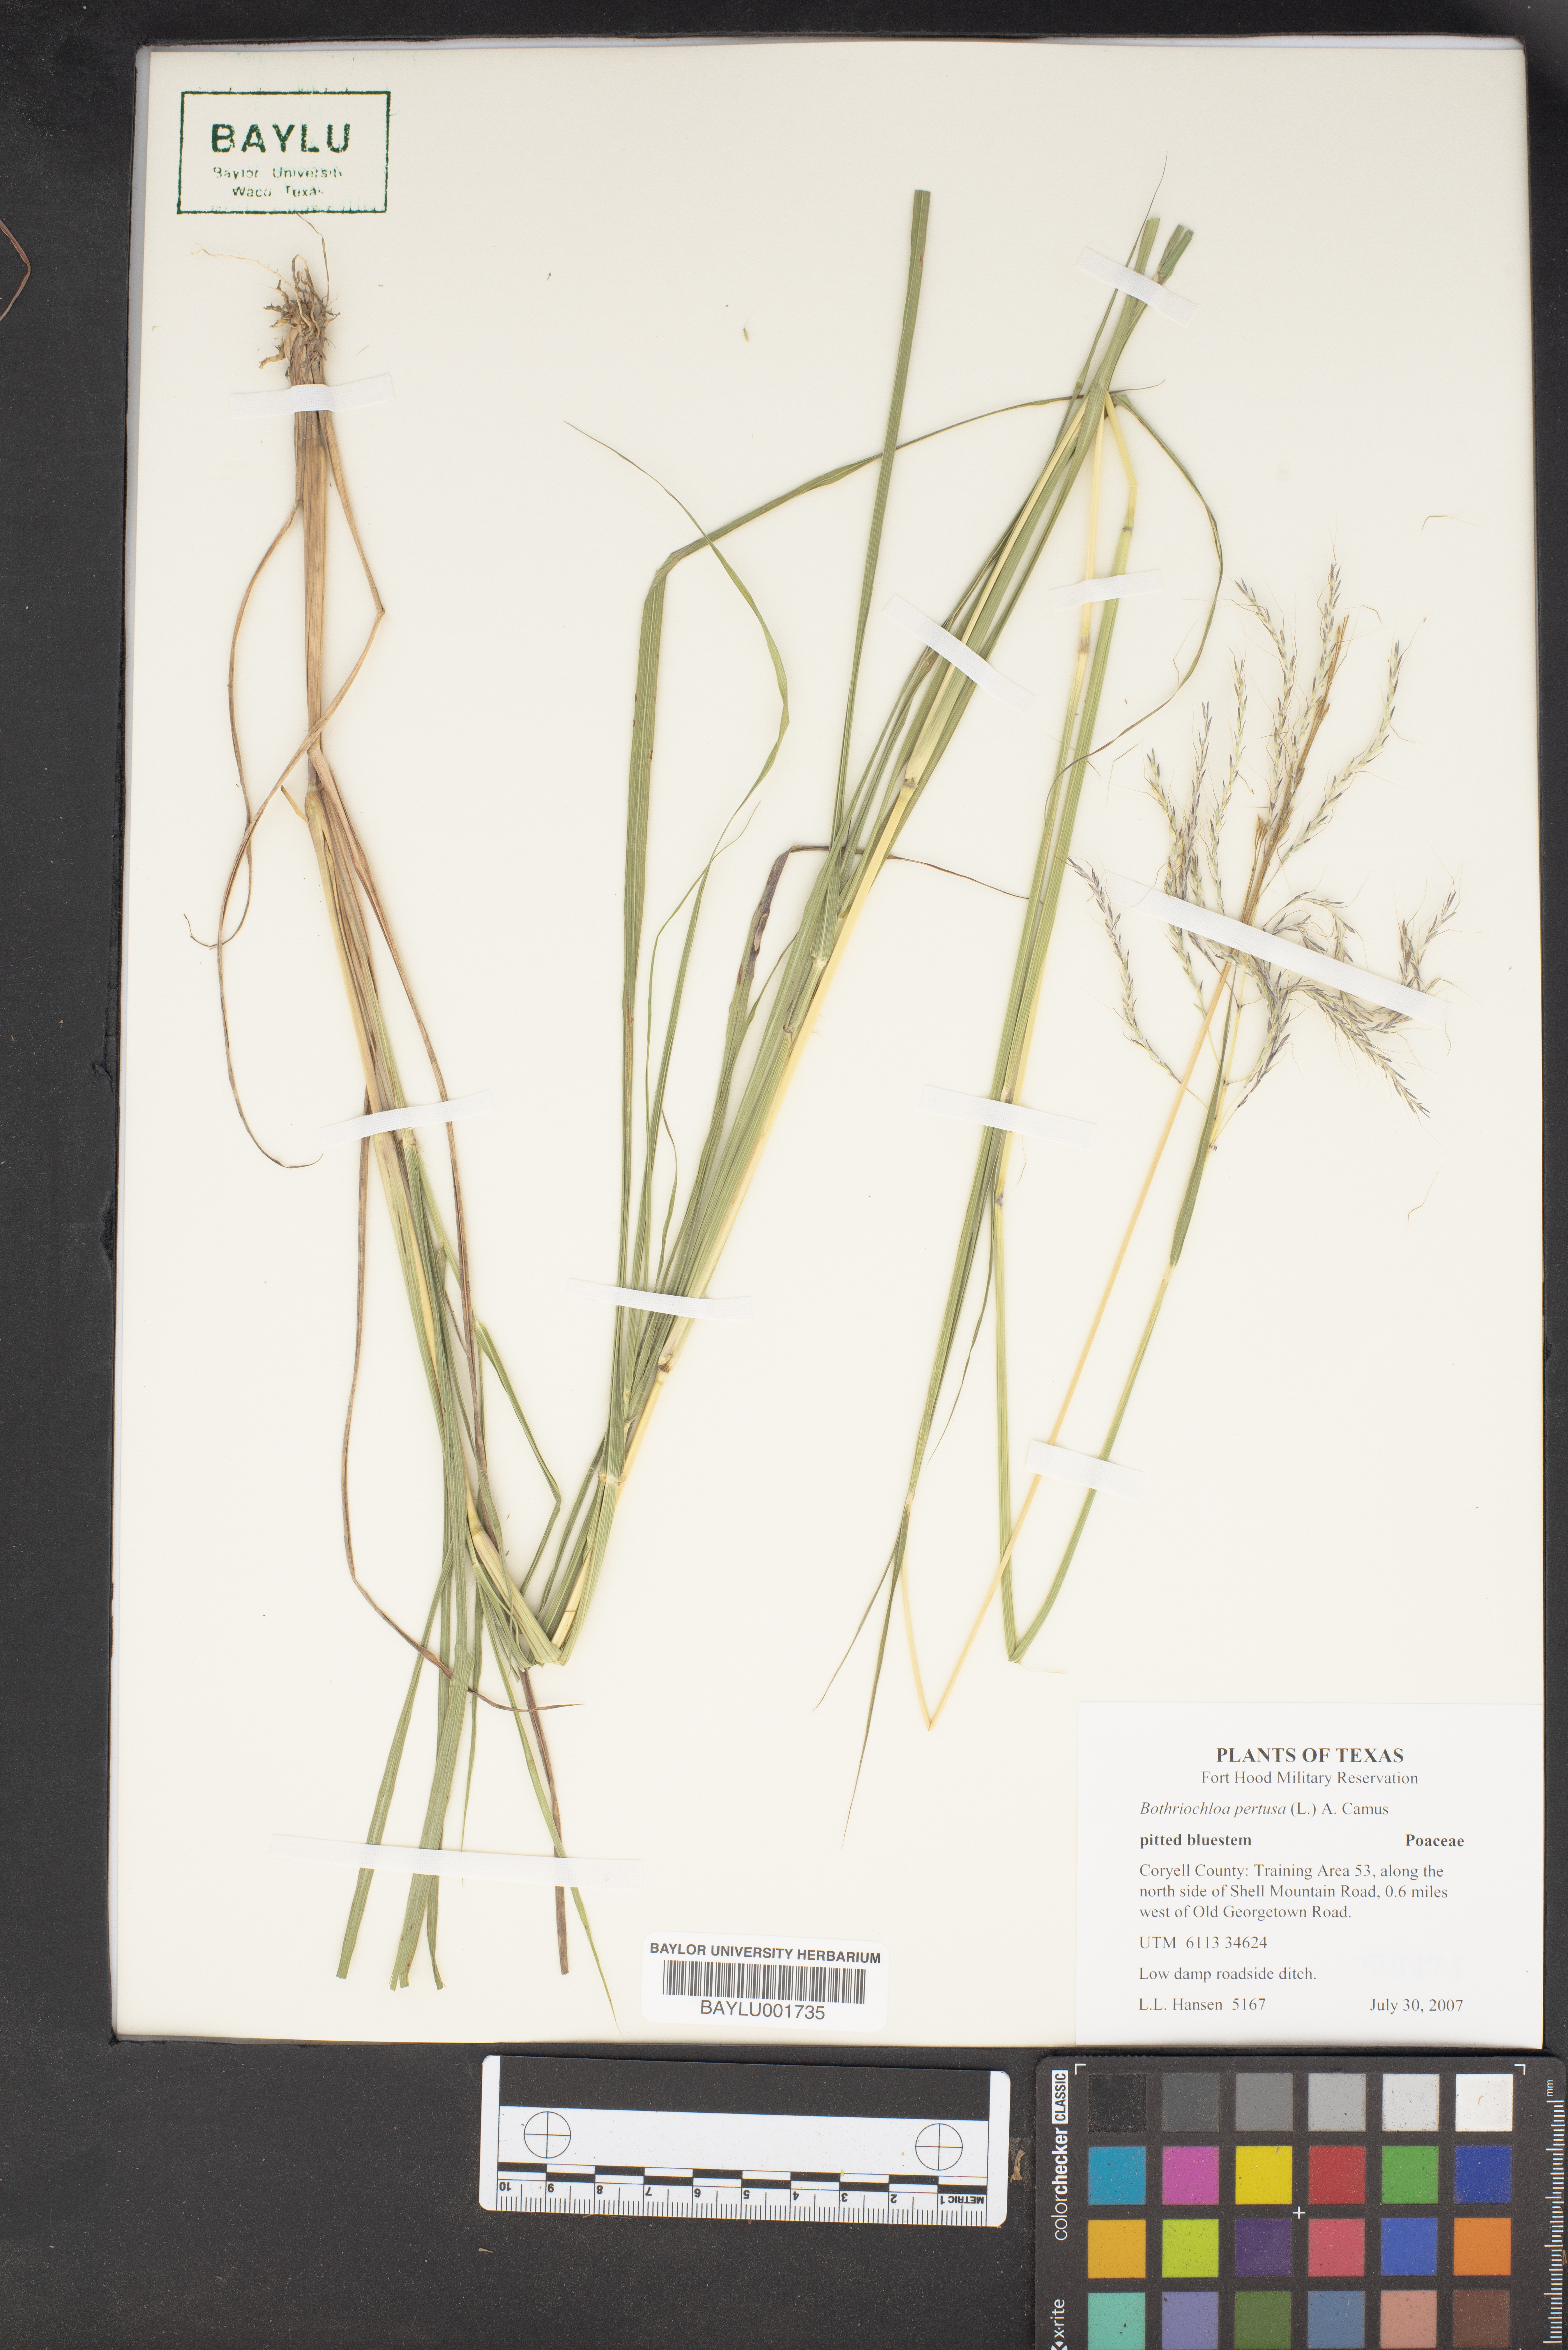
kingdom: Plantae
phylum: Tracheophyta
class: Liliopsida
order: Poales
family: Poaceae
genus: Bothriochloa
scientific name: Bothriochloa pertusa
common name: Pitted beardgrass
